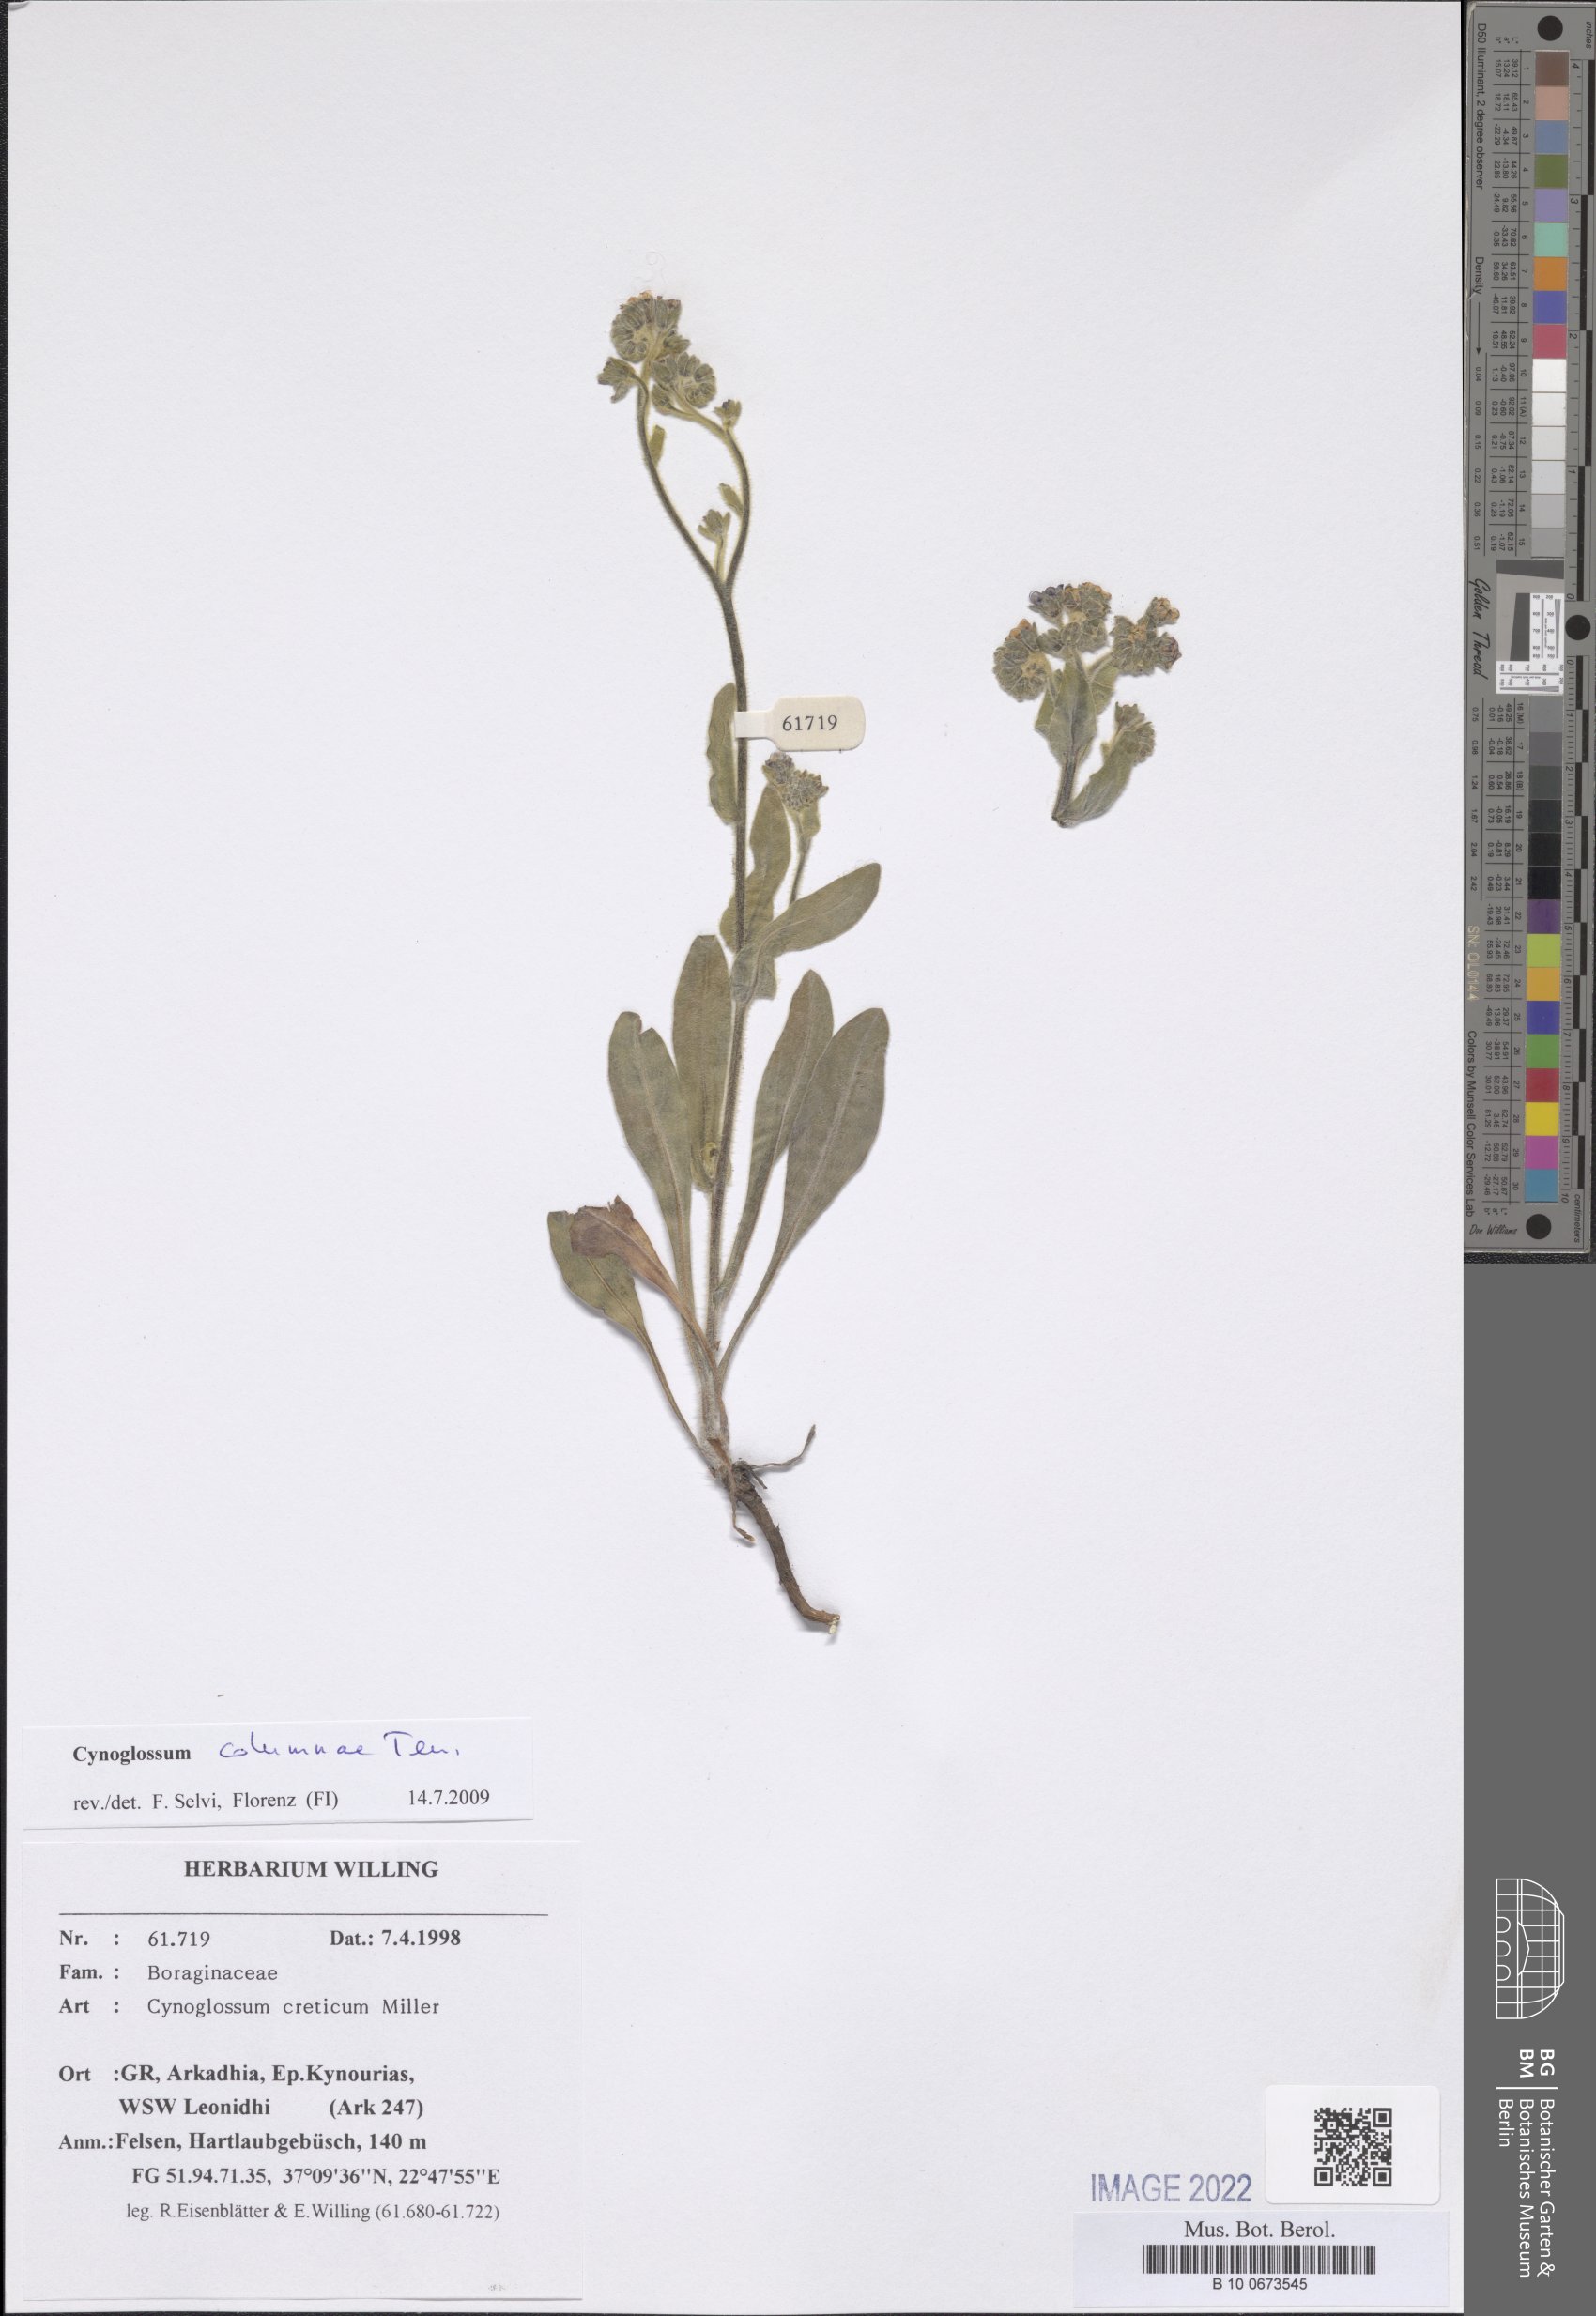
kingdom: Plantae
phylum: Tracheophyta
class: Magnoliopsida
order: Boraginales
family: Boraginaceae
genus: Rindera
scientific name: Rindera columnae
